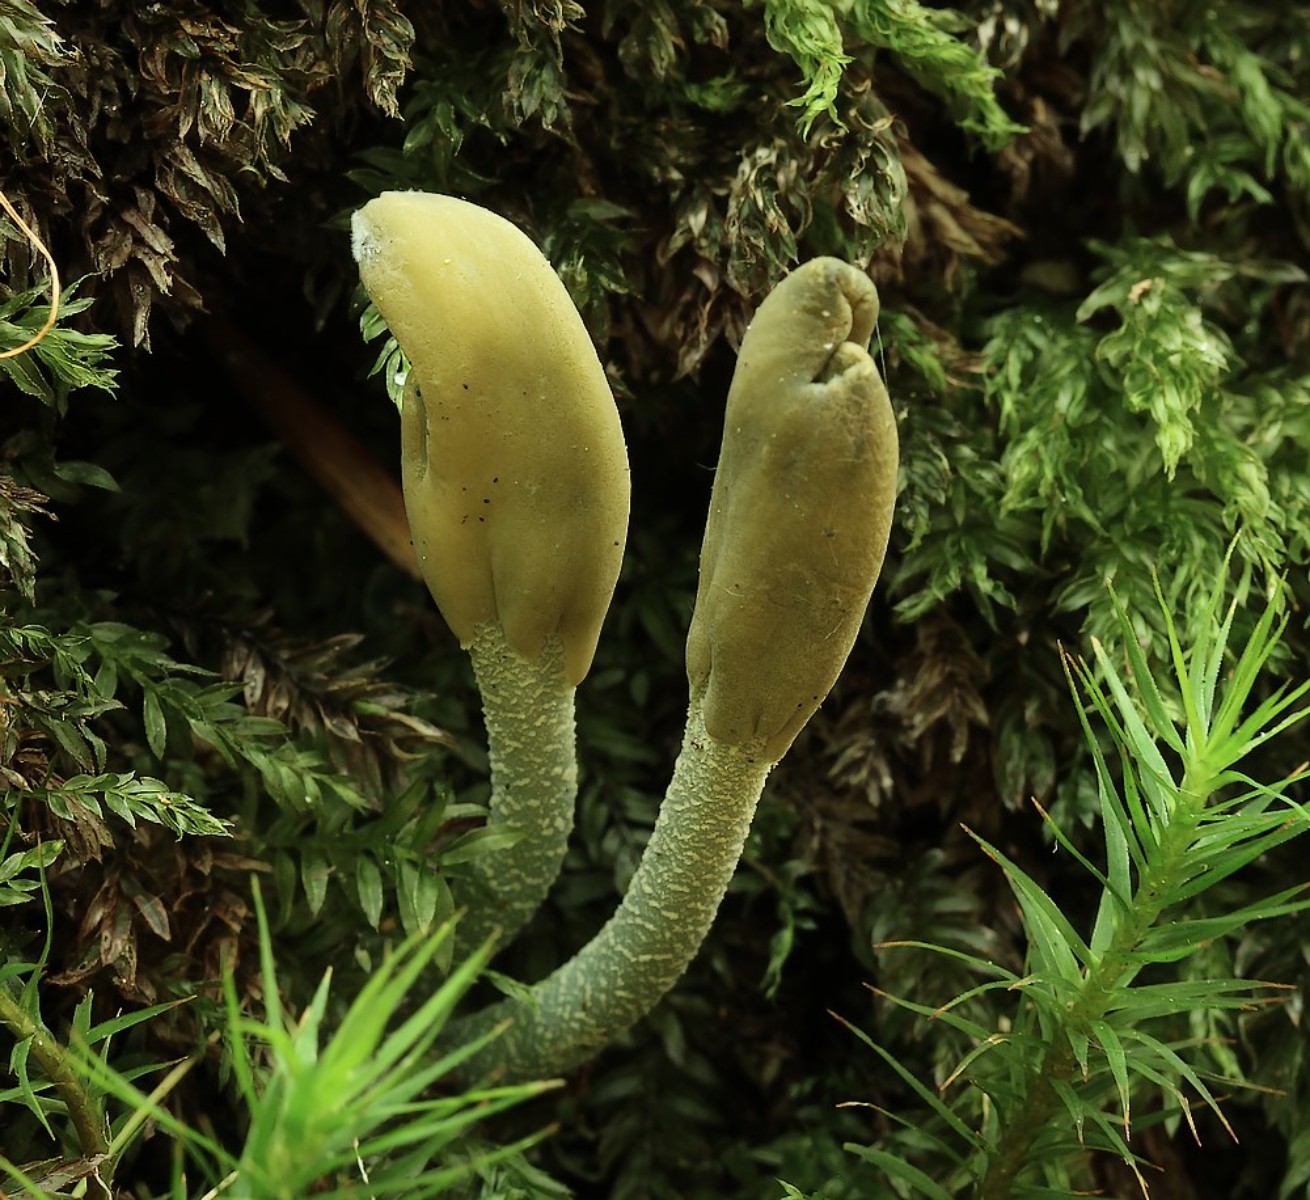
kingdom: Fungi
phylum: Ascomycota
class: Leotiomycetes
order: Leotiales
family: Leotiaceae
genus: Microglossum
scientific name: Microglossum griseoviride
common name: grågrøn farvetunge
